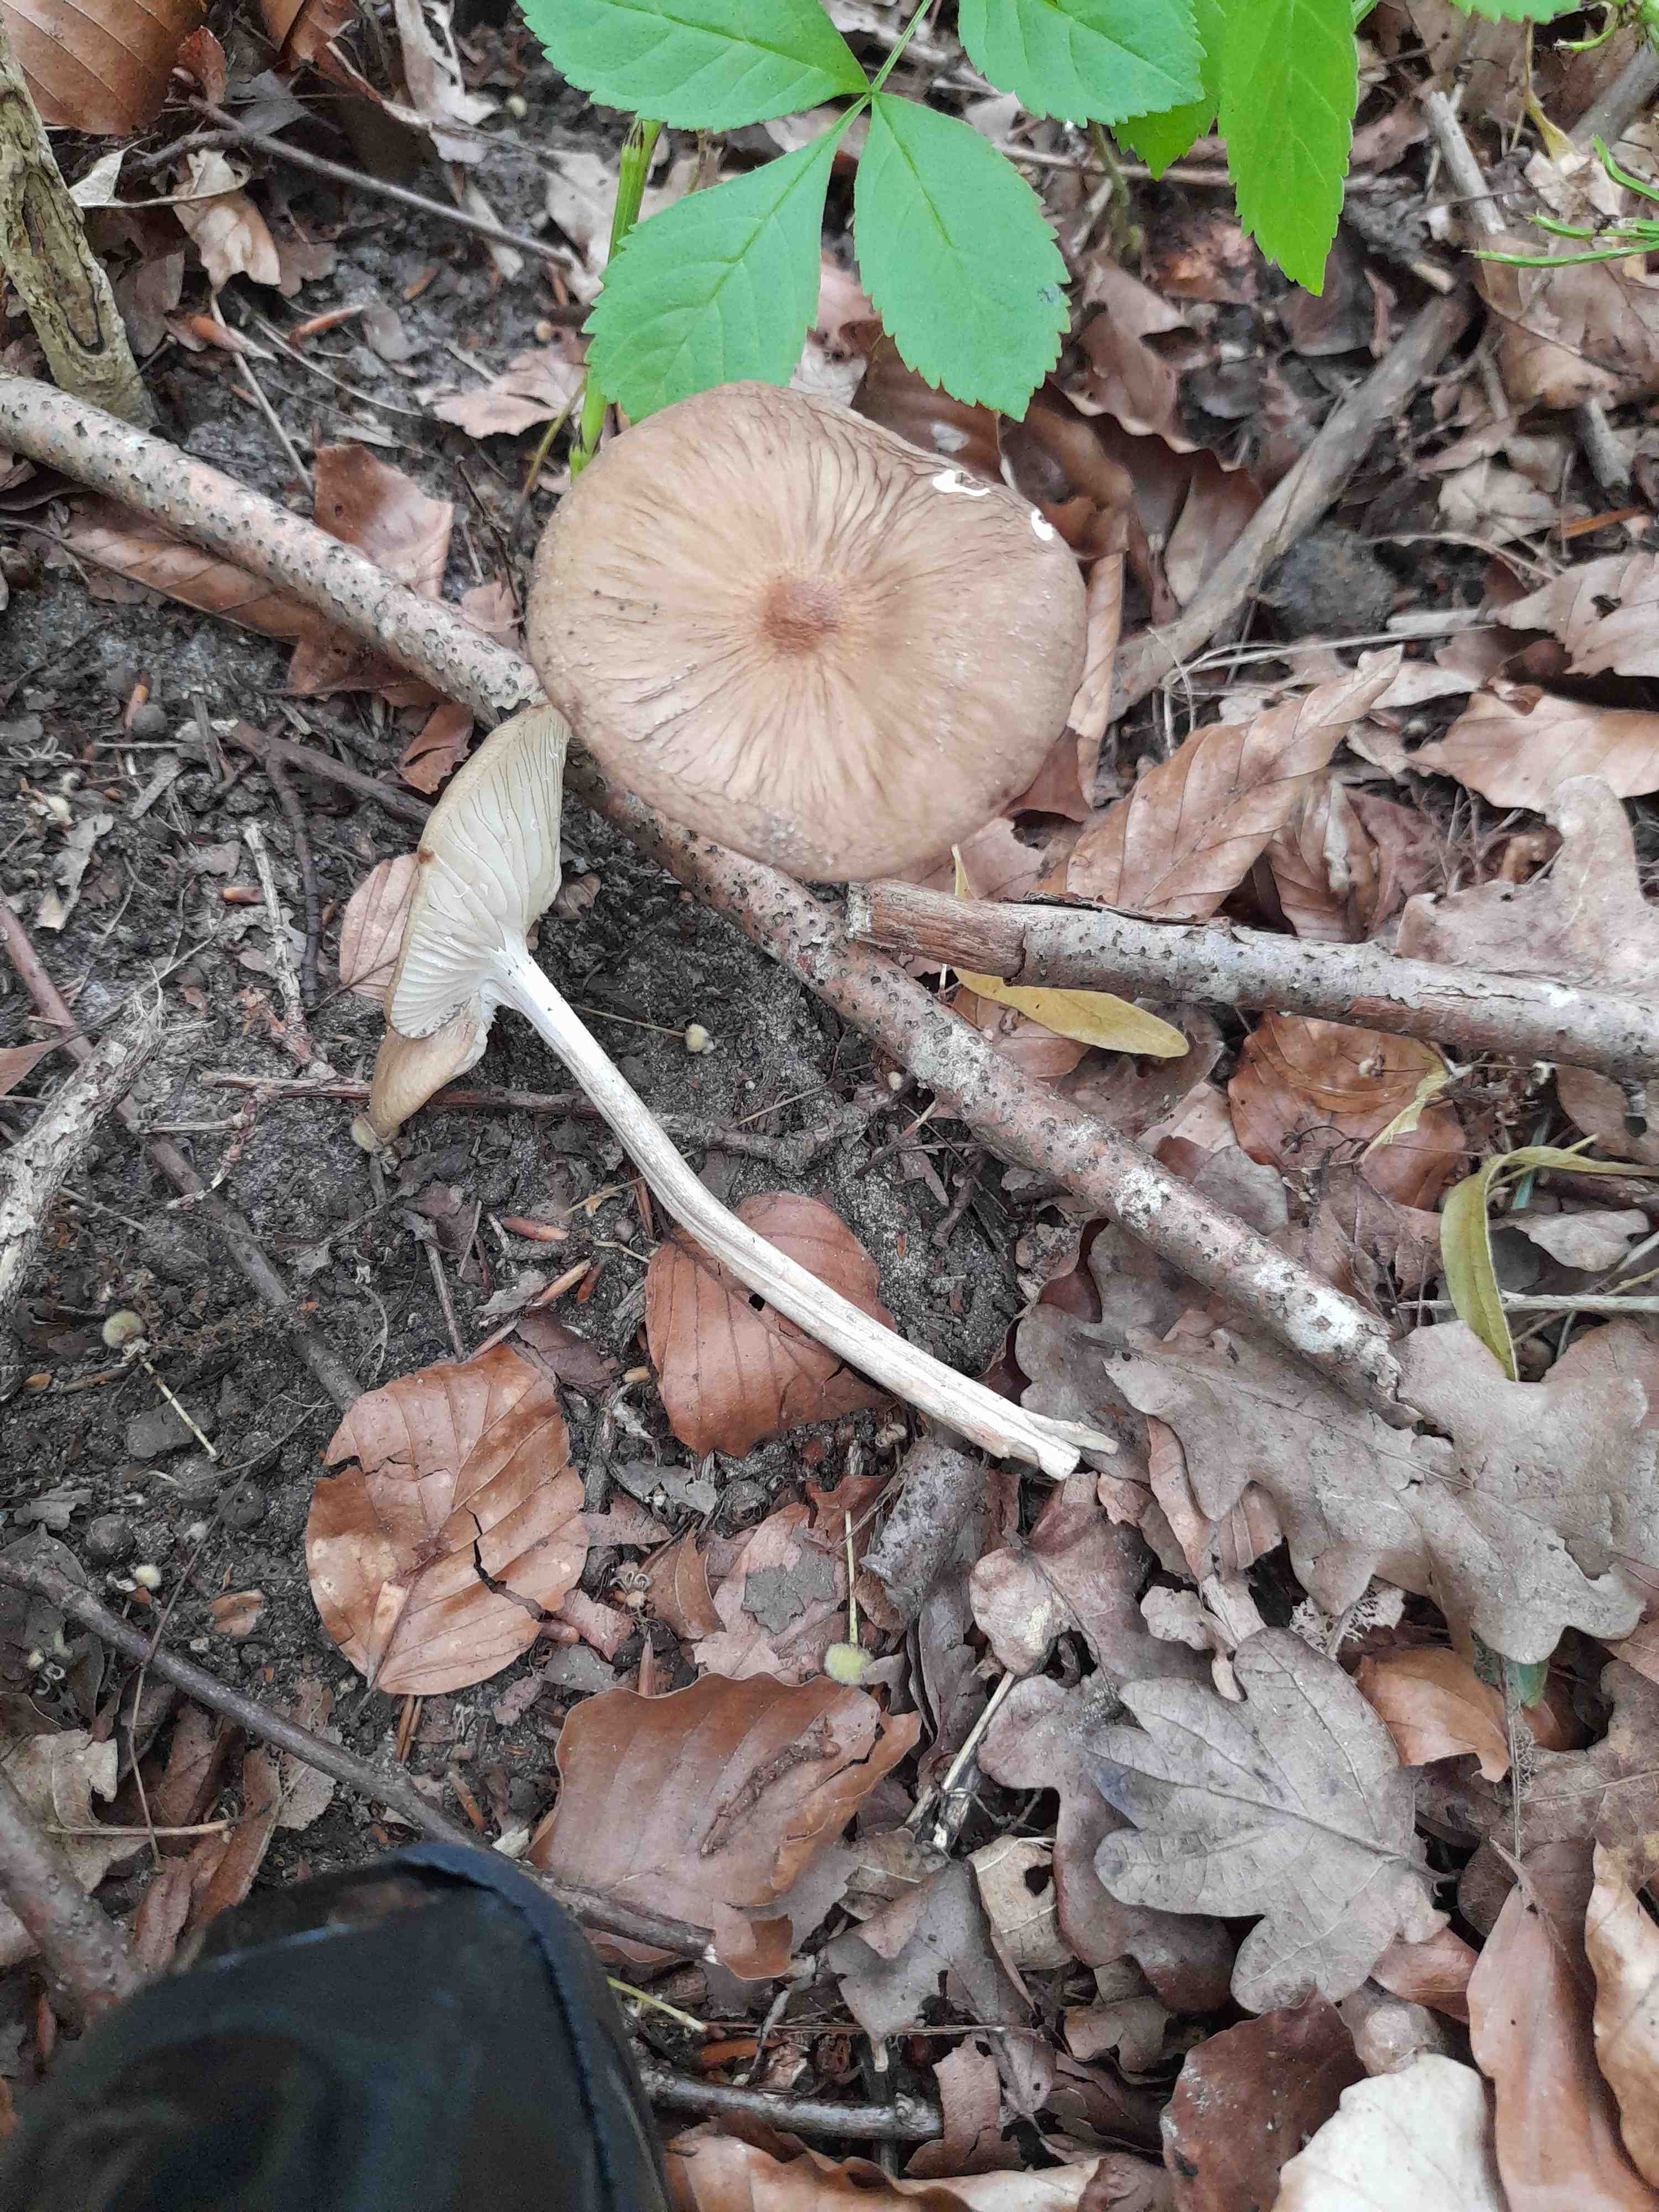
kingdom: Fungi
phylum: Basidiomycota
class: Agaricomycetes
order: Agaricales
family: Physalacriaceae
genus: Hymenopellis
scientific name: Hymenopellis radicata
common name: almindelig pælerodshat
